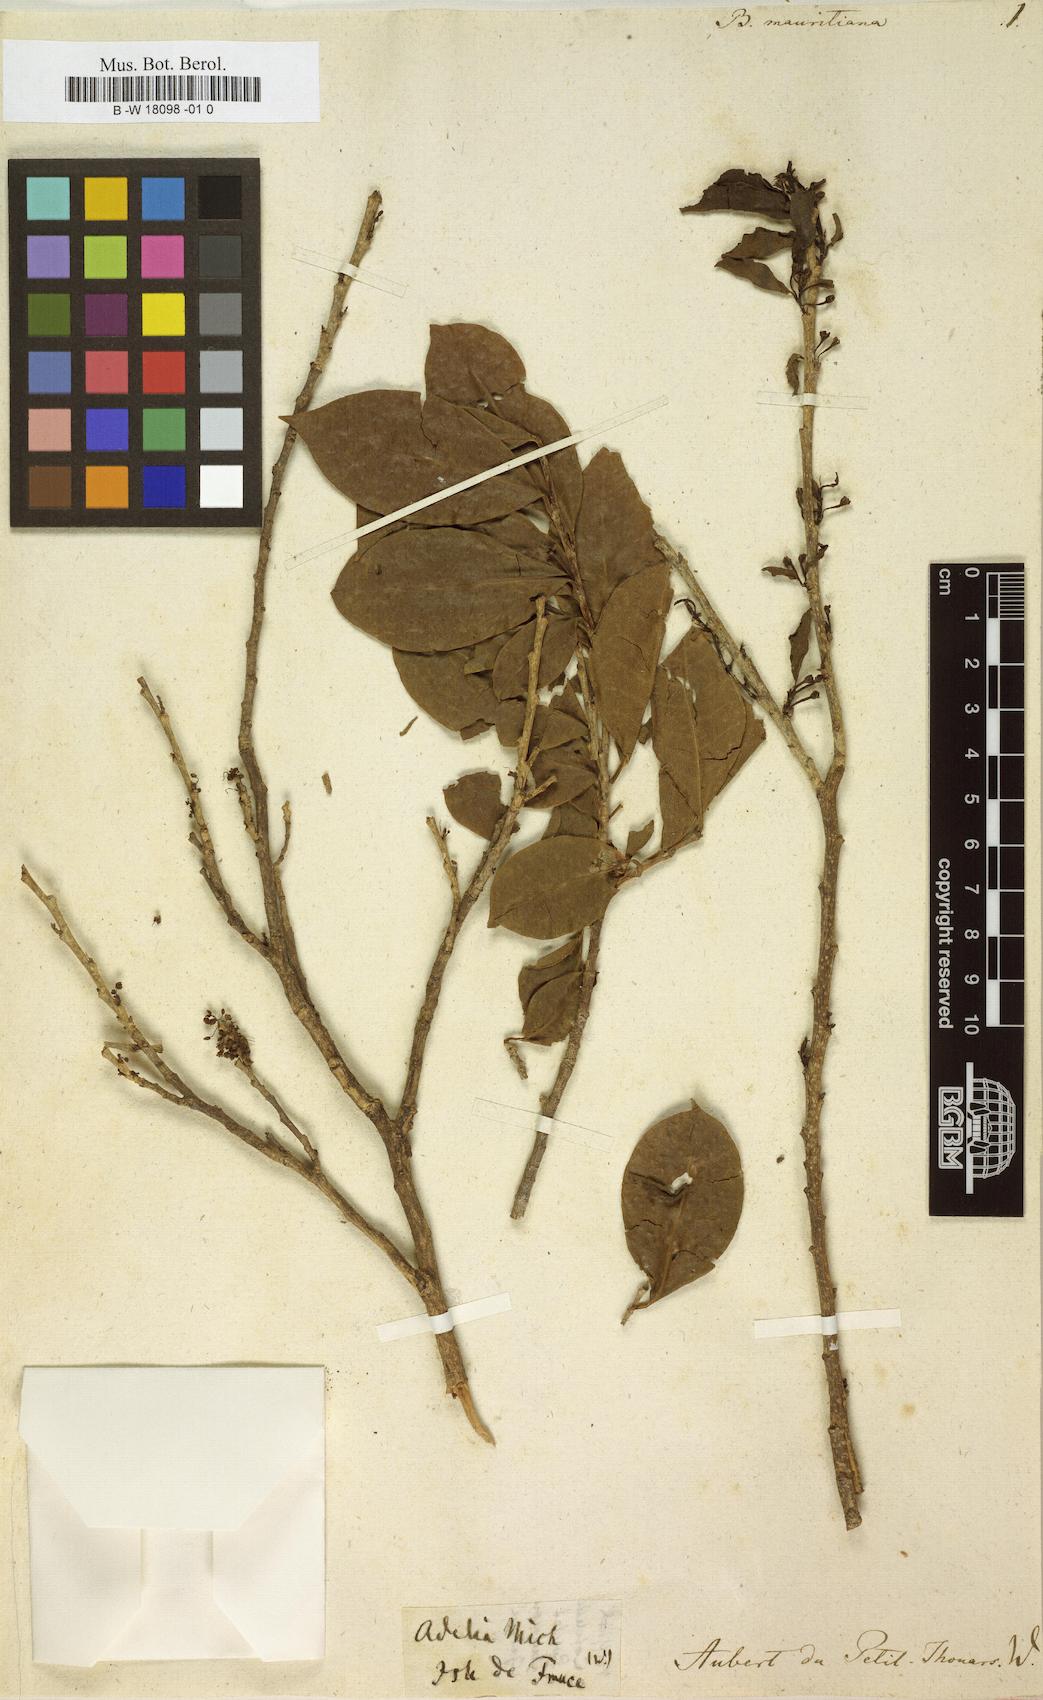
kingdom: Plantae
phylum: Tracheophyta
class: Liliopsida
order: Asparagales
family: Boryaceae
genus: Borya
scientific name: Borya
